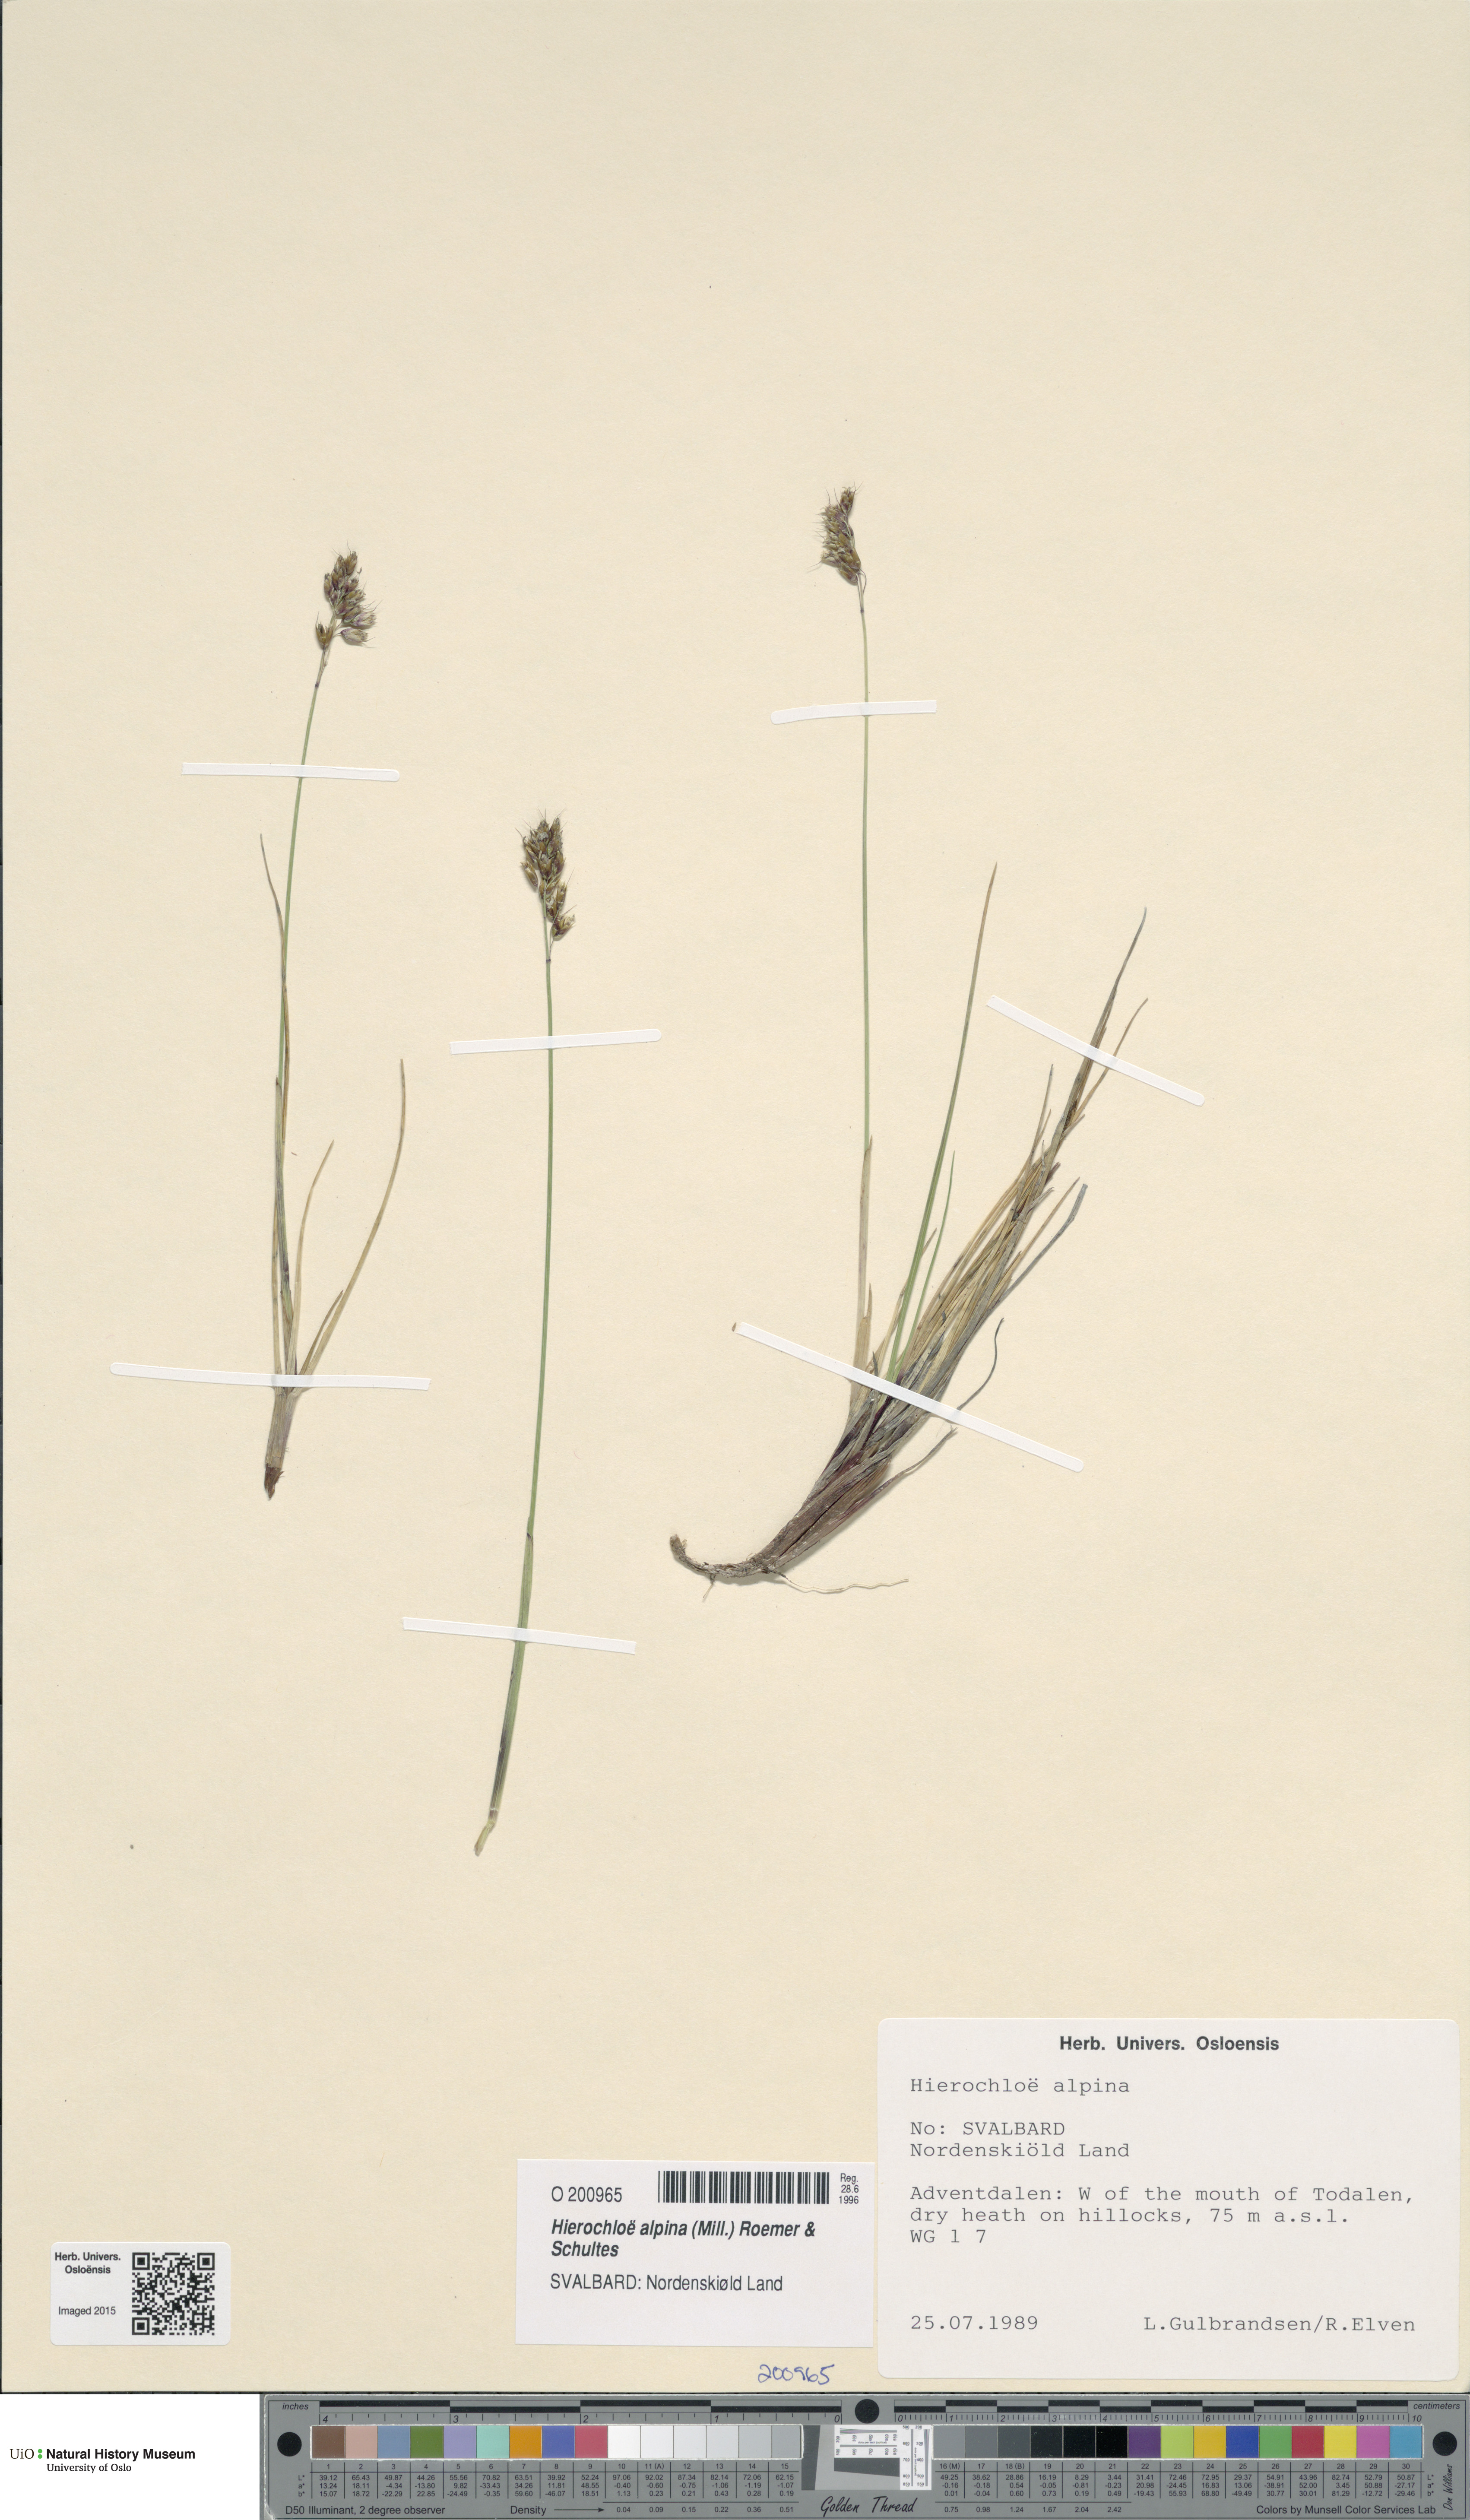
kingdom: Plantae
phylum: Tracheophyta
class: Liliopsida
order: Poales
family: Poaceae
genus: Anthoxanthum
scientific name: Anthoxanthum monticola
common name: Alpine sweetgrass
